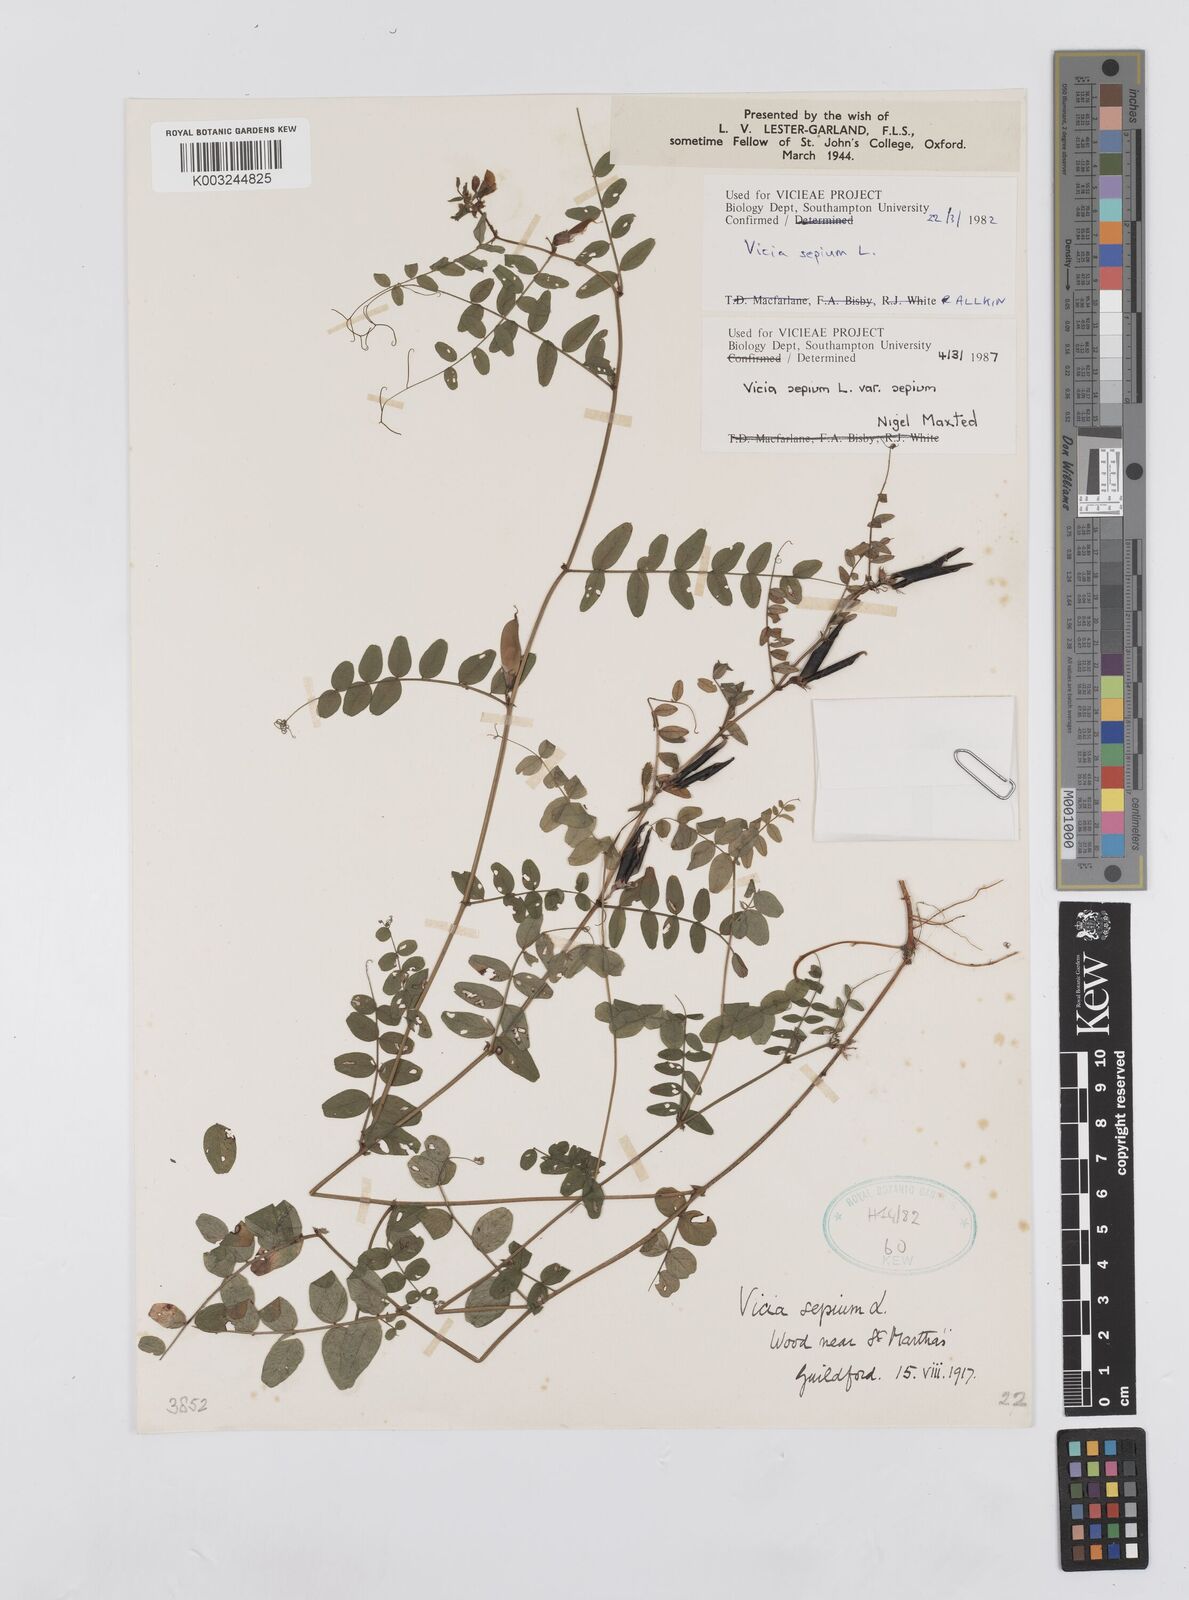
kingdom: Plantae
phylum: Tracheophyta
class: Magnoliopsida
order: Fabales
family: Fabaceae
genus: Vicia
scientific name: Vicia sepium
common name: Bush vetch
